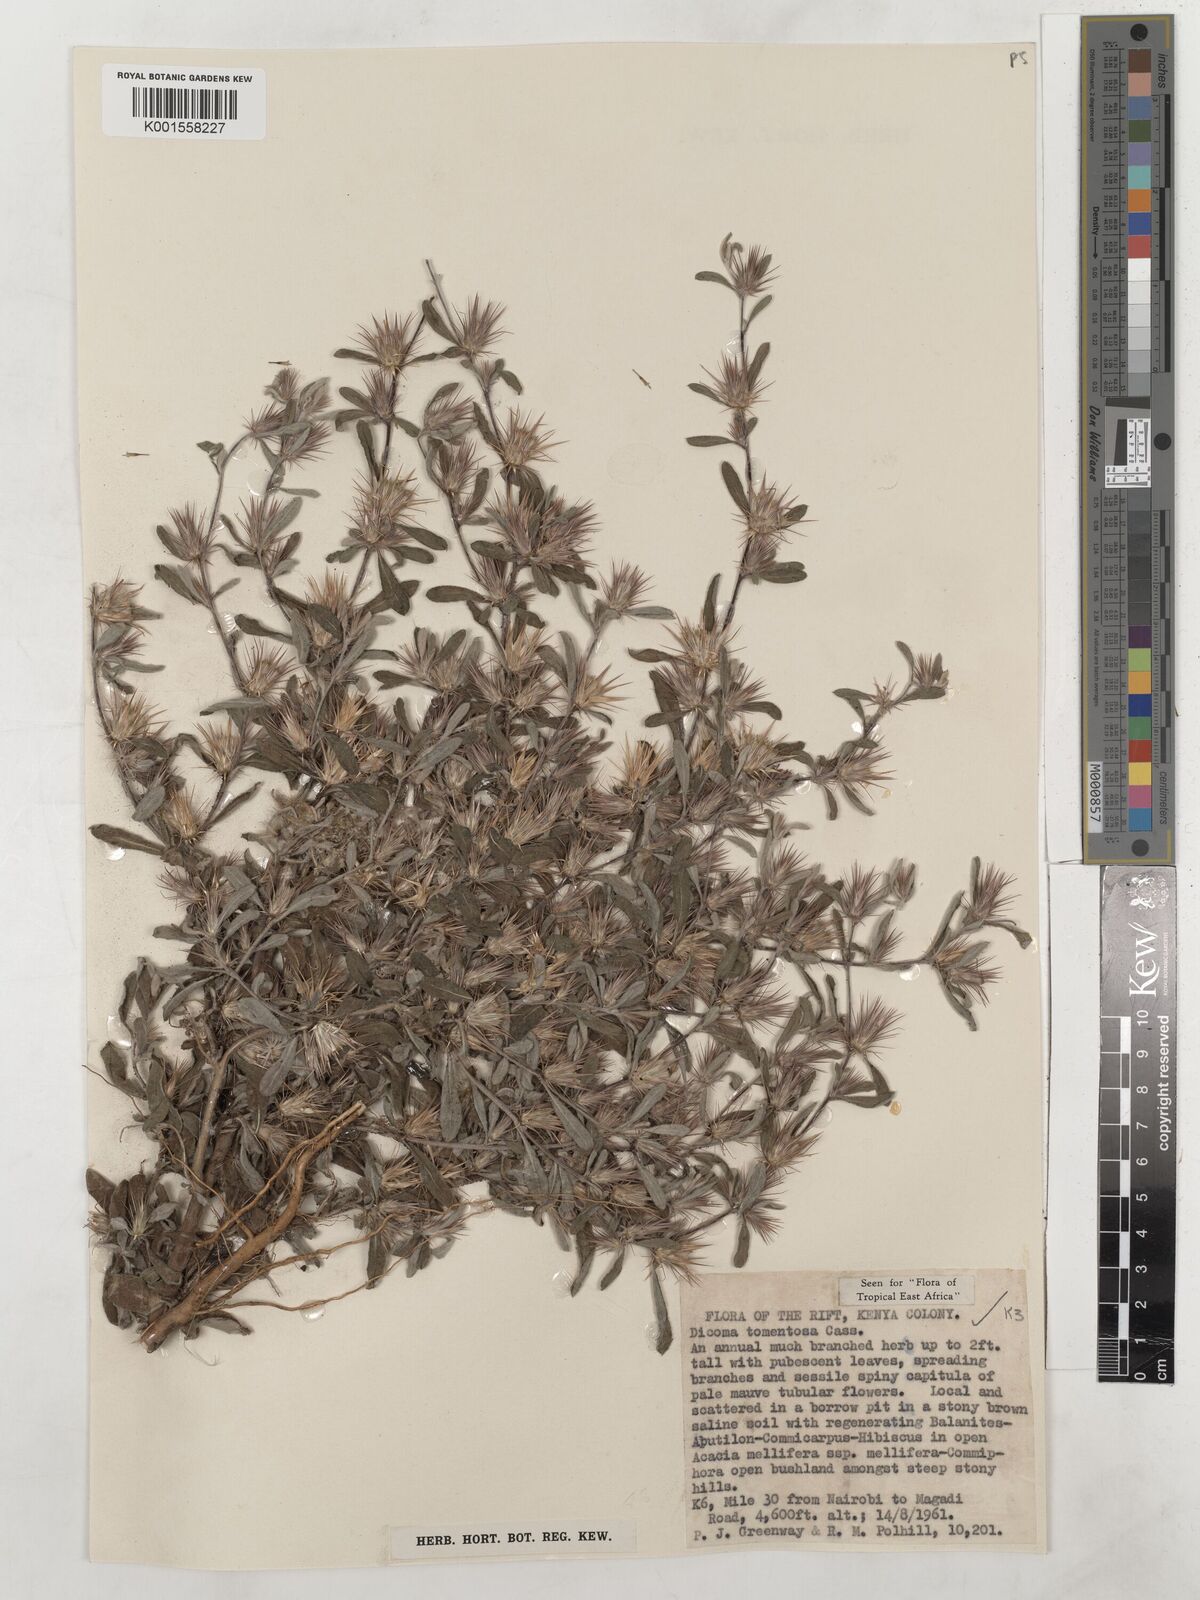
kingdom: Plantae
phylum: Tracheophyta
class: Magnoliopsida
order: Asterales
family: Asteraceae
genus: Dicoma
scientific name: Dicoma tomentosa
